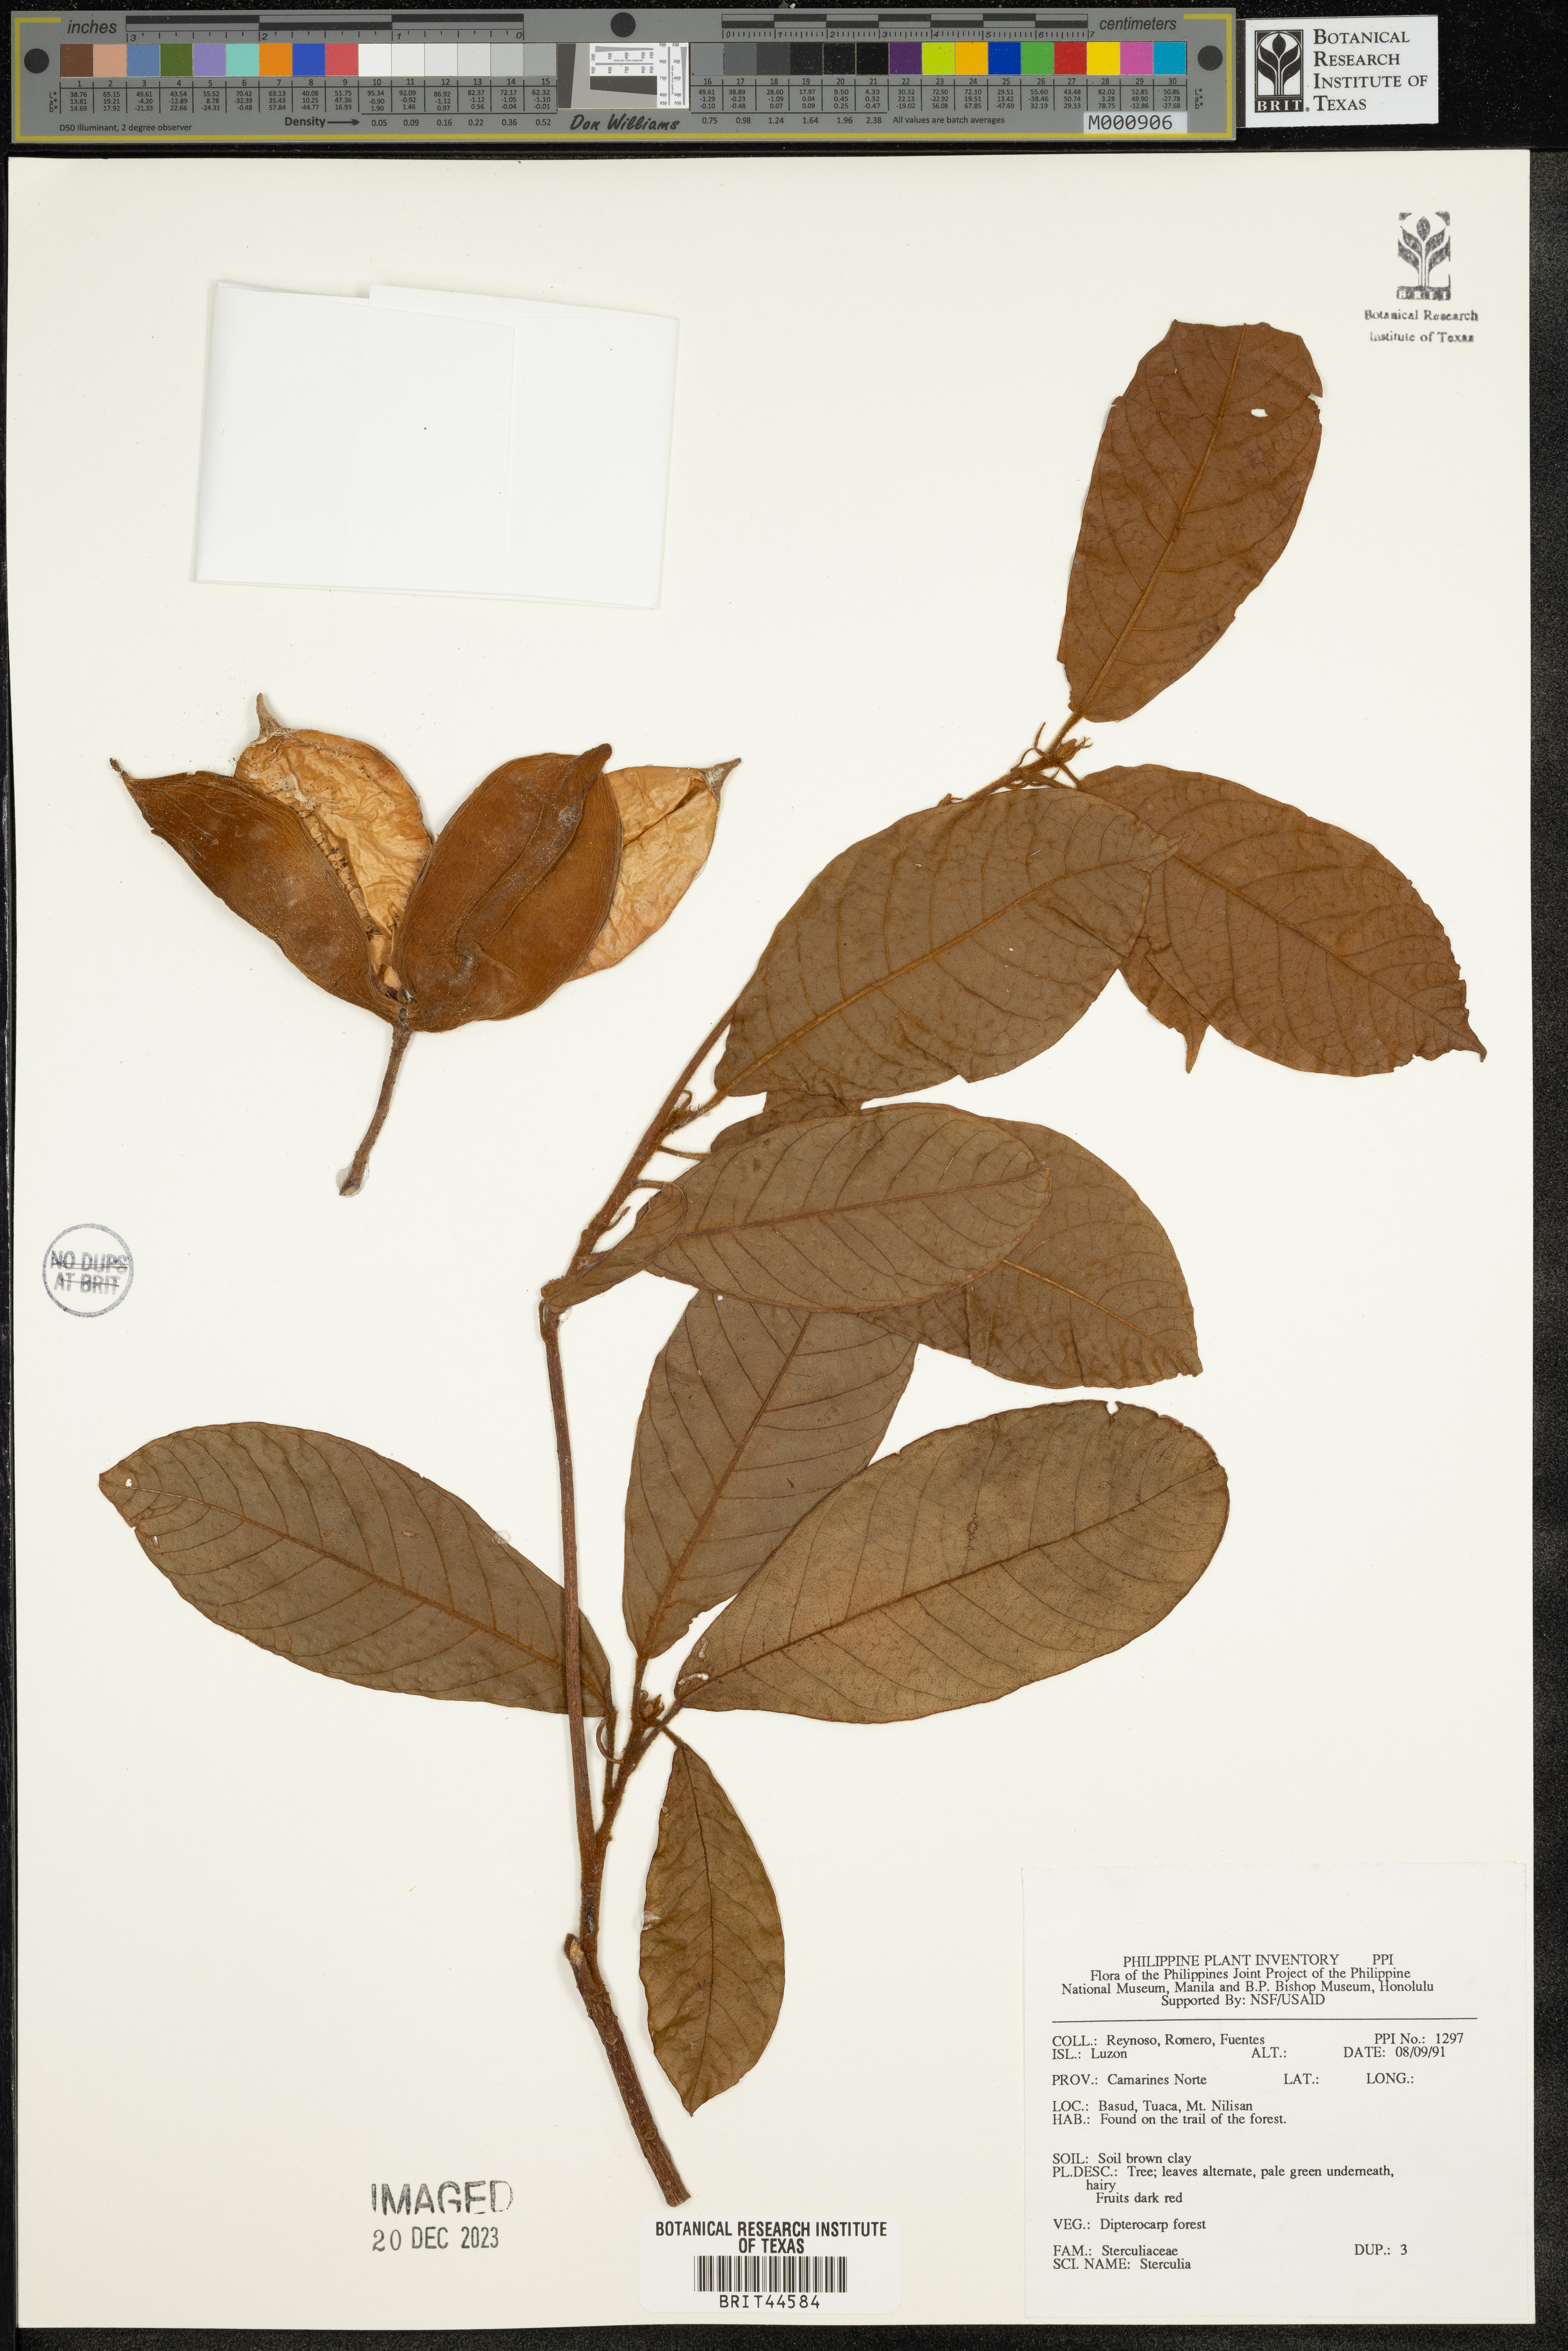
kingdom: Plantae
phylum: Tracheophyta
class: Magnoliopsida
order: Malvales
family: Malvaceae
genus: Sterculia
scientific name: Sterculia
